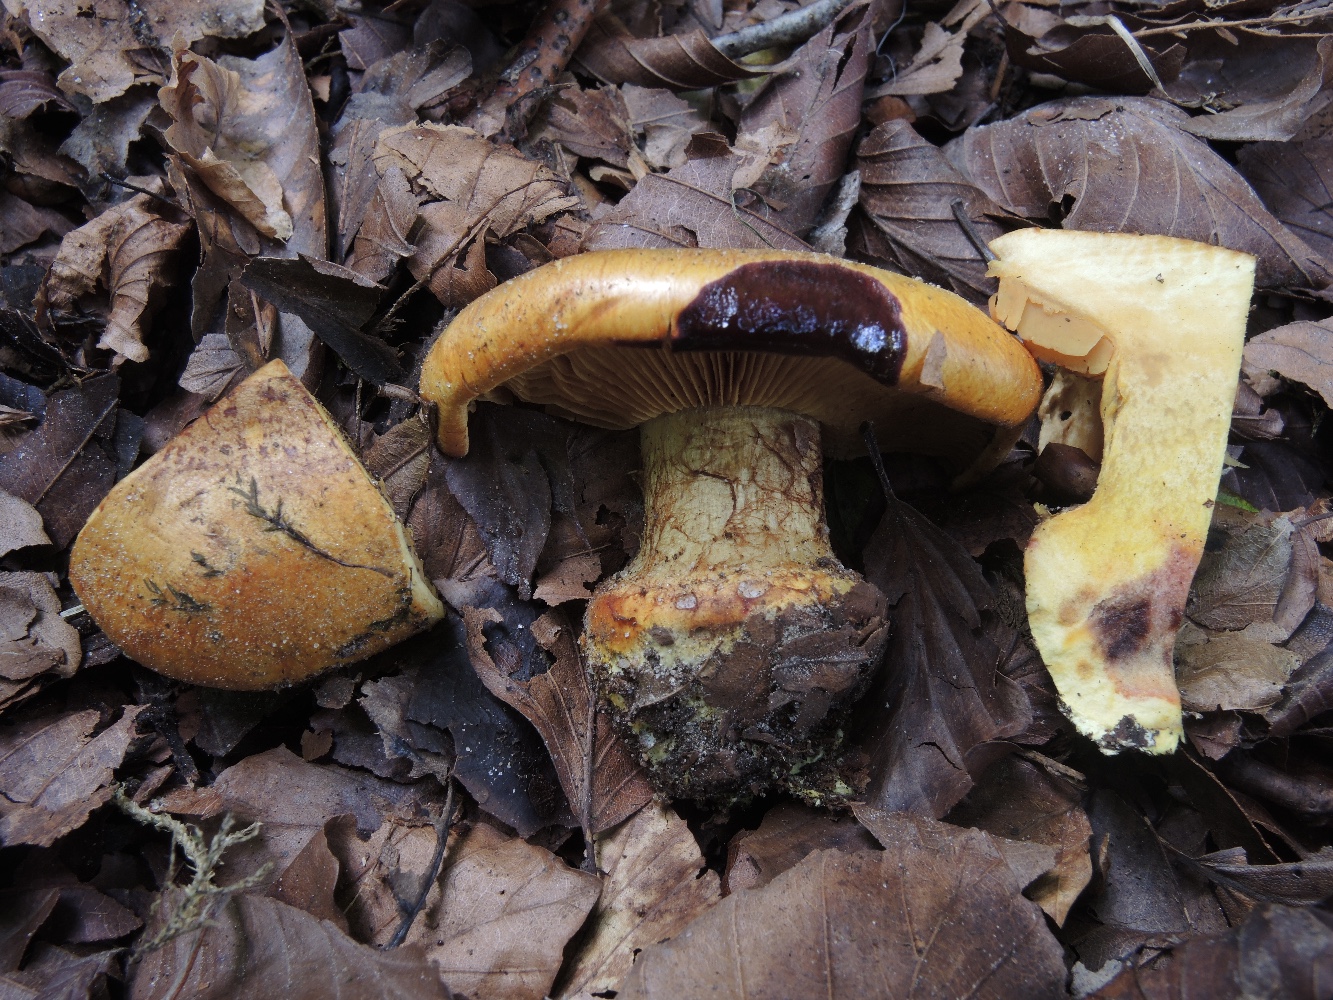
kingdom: Fungi
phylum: Basidiomycota
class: Agaricomycetes
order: Agaricales
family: Cortinariaceae
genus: Calonarius
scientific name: Calonarius alcalinophilus
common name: gyldenbrun slørhat
